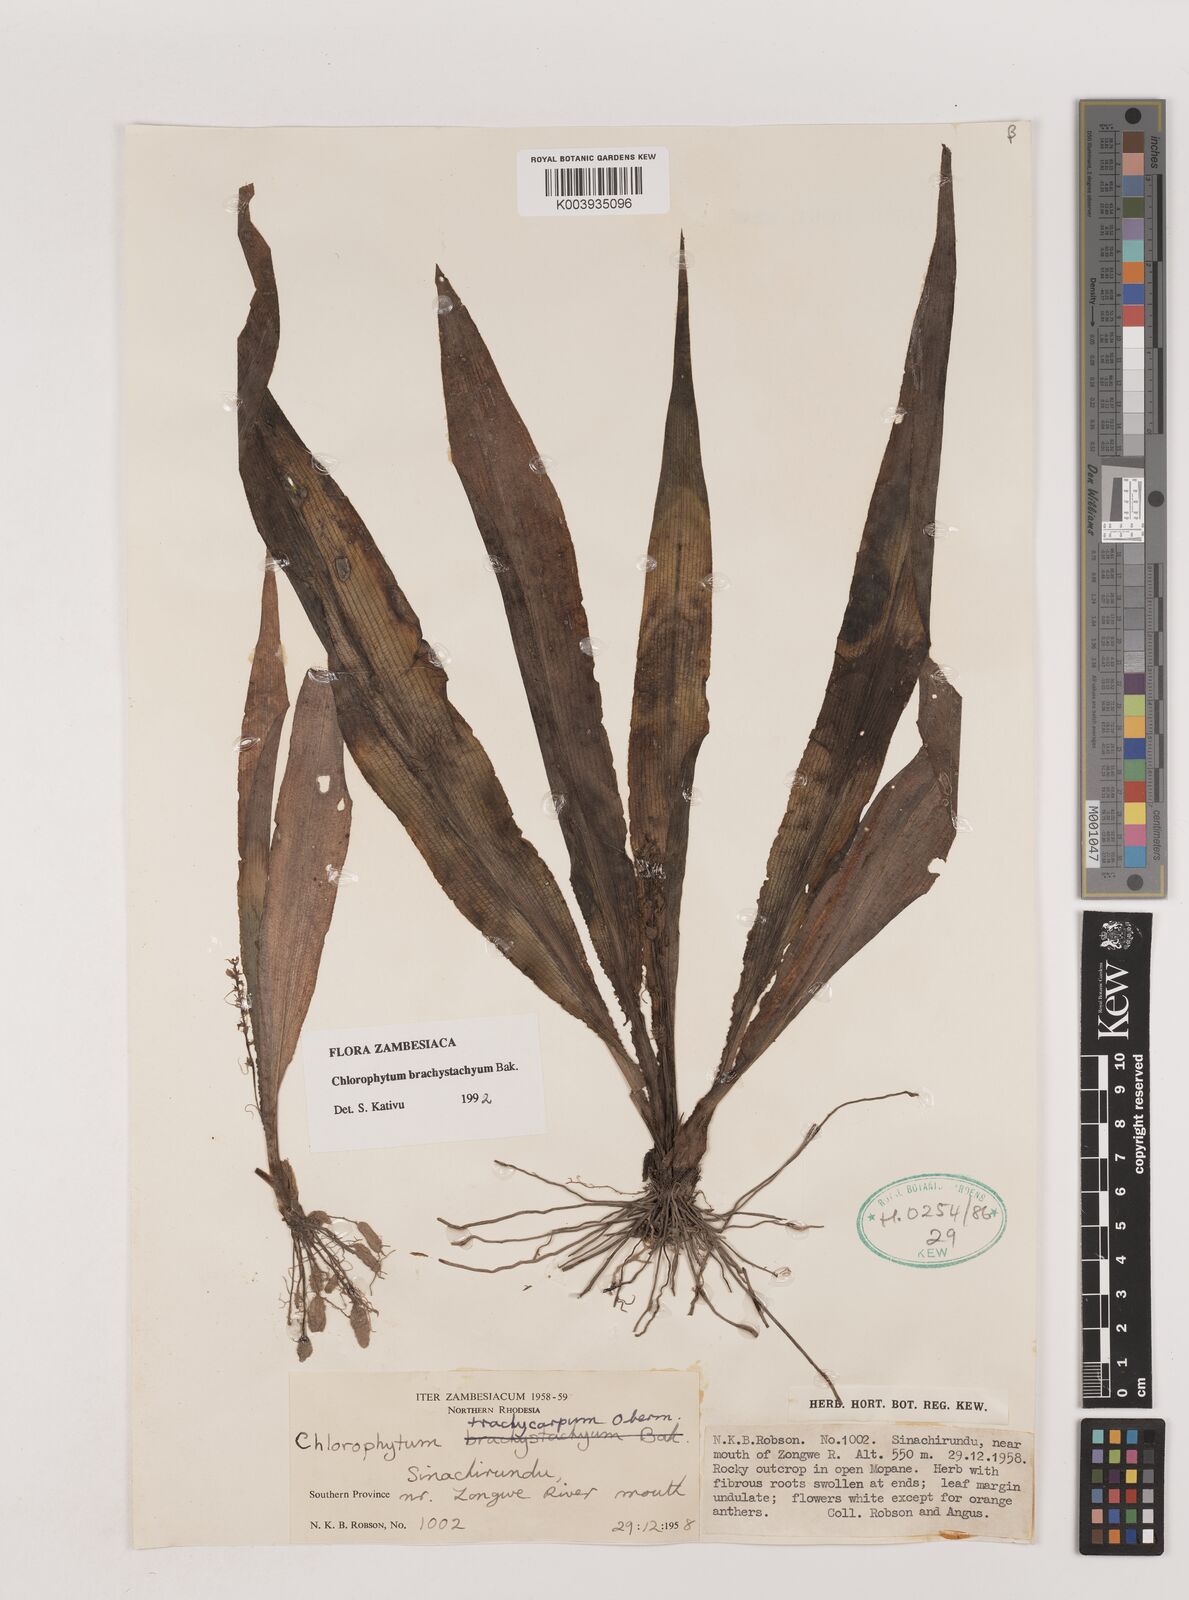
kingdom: Plantae
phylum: Tracheophyta
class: Liliopsida
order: Asparagales
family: Asparagaceae
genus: Chlorophytum
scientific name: Chlorophytum brachystachyum
